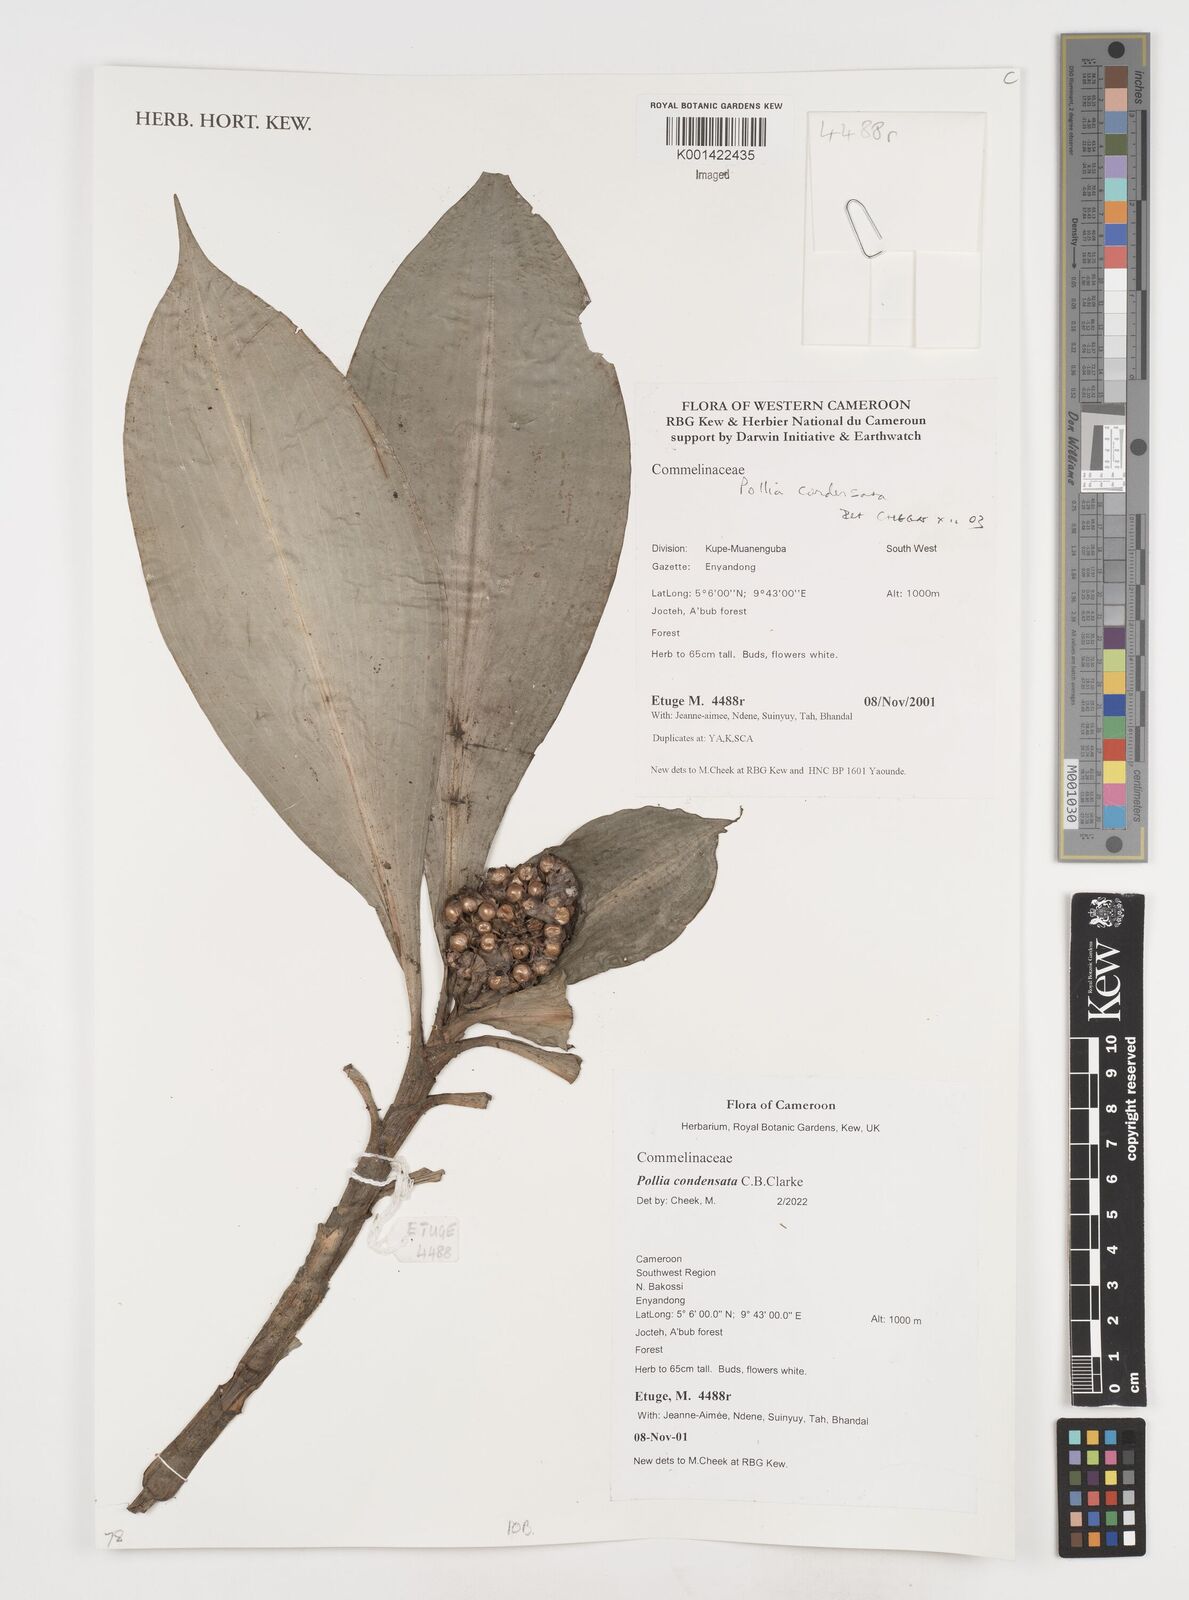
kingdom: Plantae
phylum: Tracheophyta
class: Liliopsida
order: Commelinales
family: Commelinaceae
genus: Pollia
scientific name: Pollia condensata
